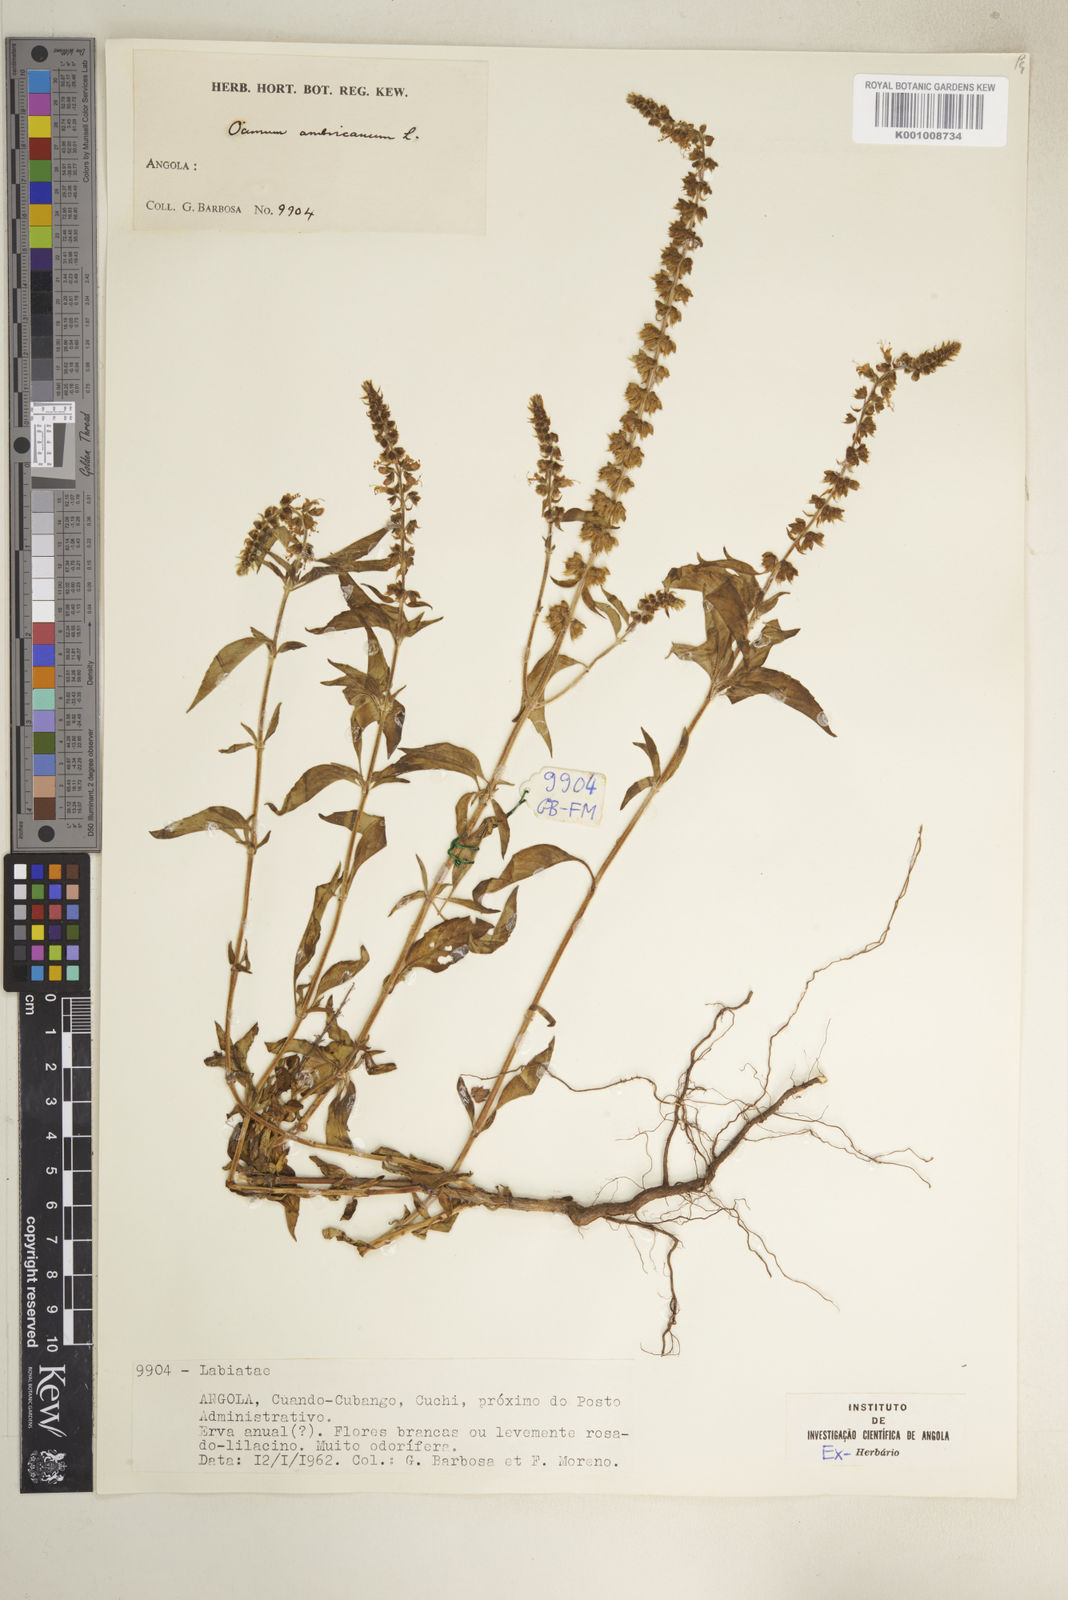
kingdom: Plantae
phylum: Tracheophyta
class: Magnoliopsida
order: Lamiales
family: Lamiaceae
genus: Ocimum
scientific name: Ocimum africanum
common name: Hoary basil
